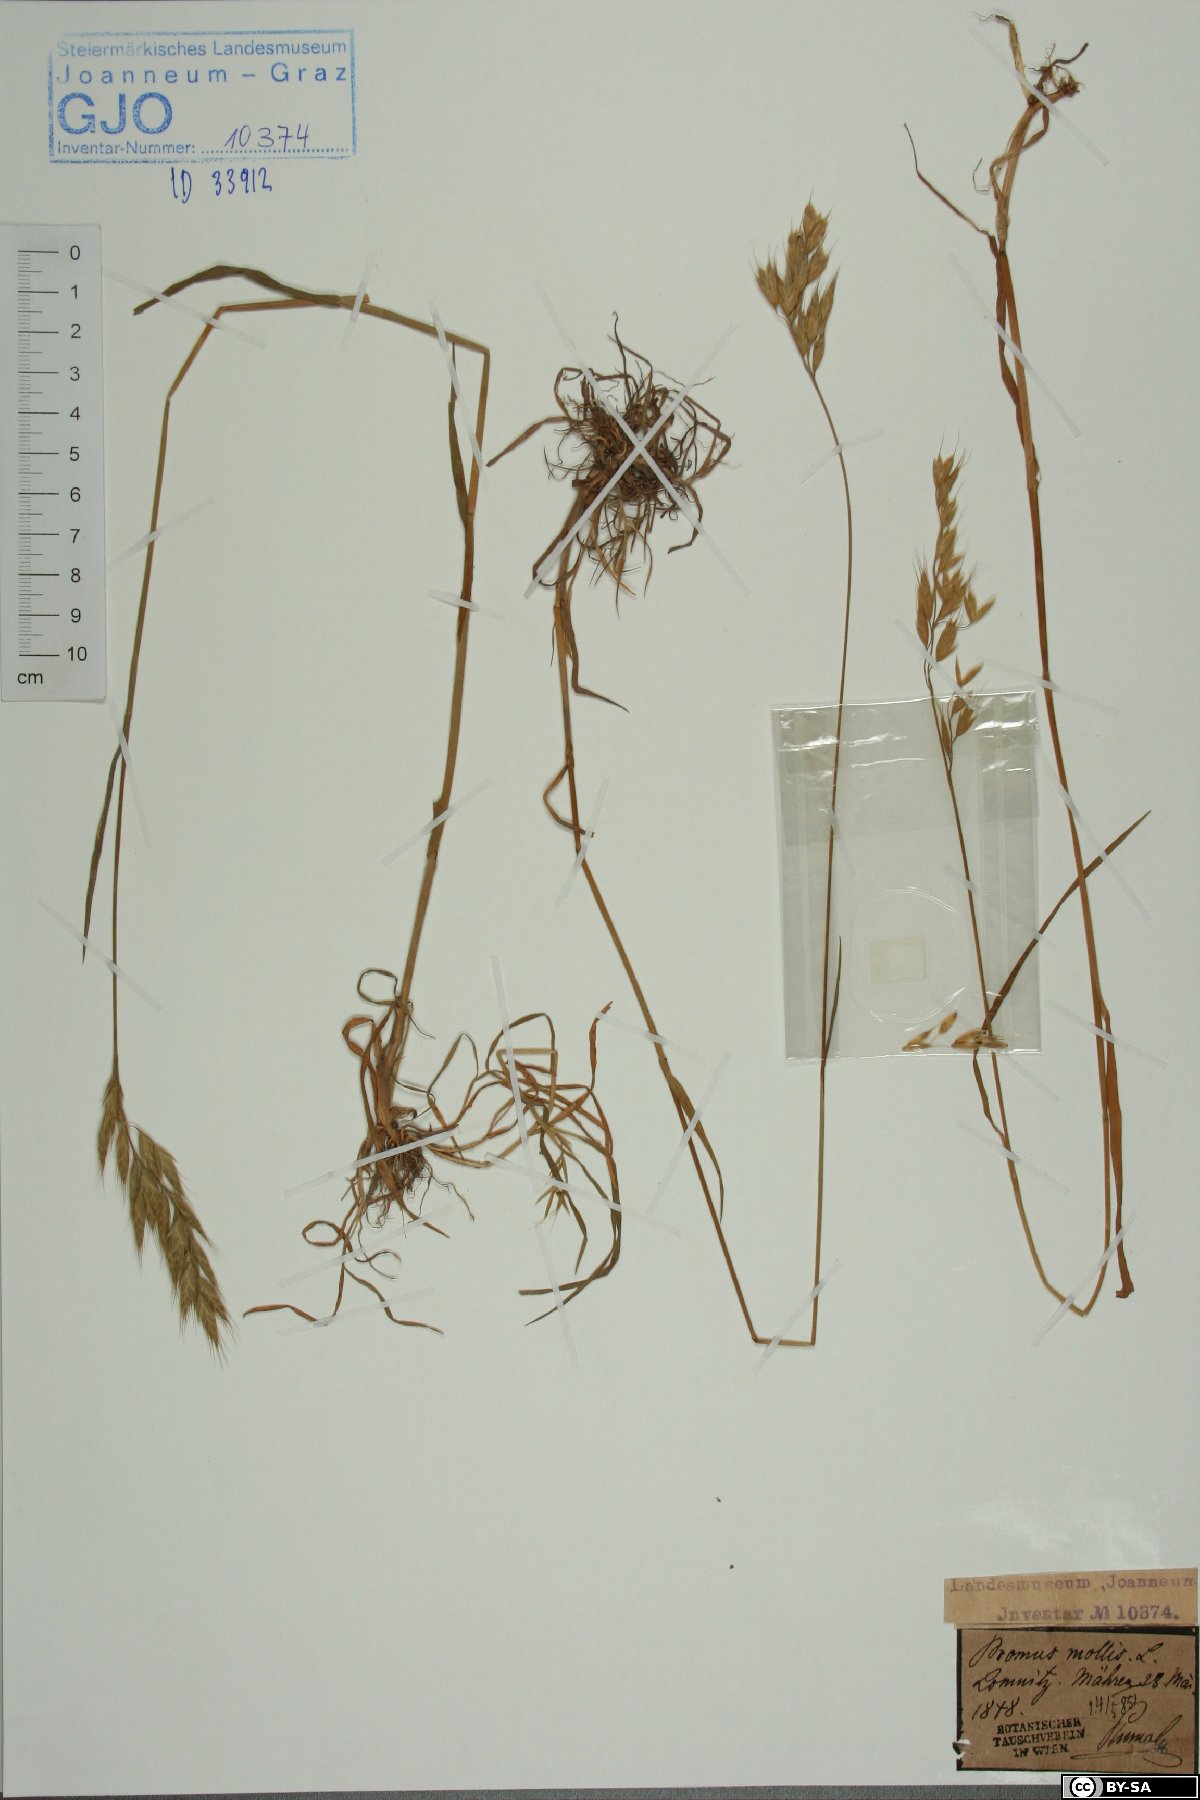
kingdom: Plantae
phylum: Tracheophyta
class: Liliopsida
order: Poales
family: Poaceae
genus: Bromus
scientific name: Bromus hordeaceus
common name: Soft brome
